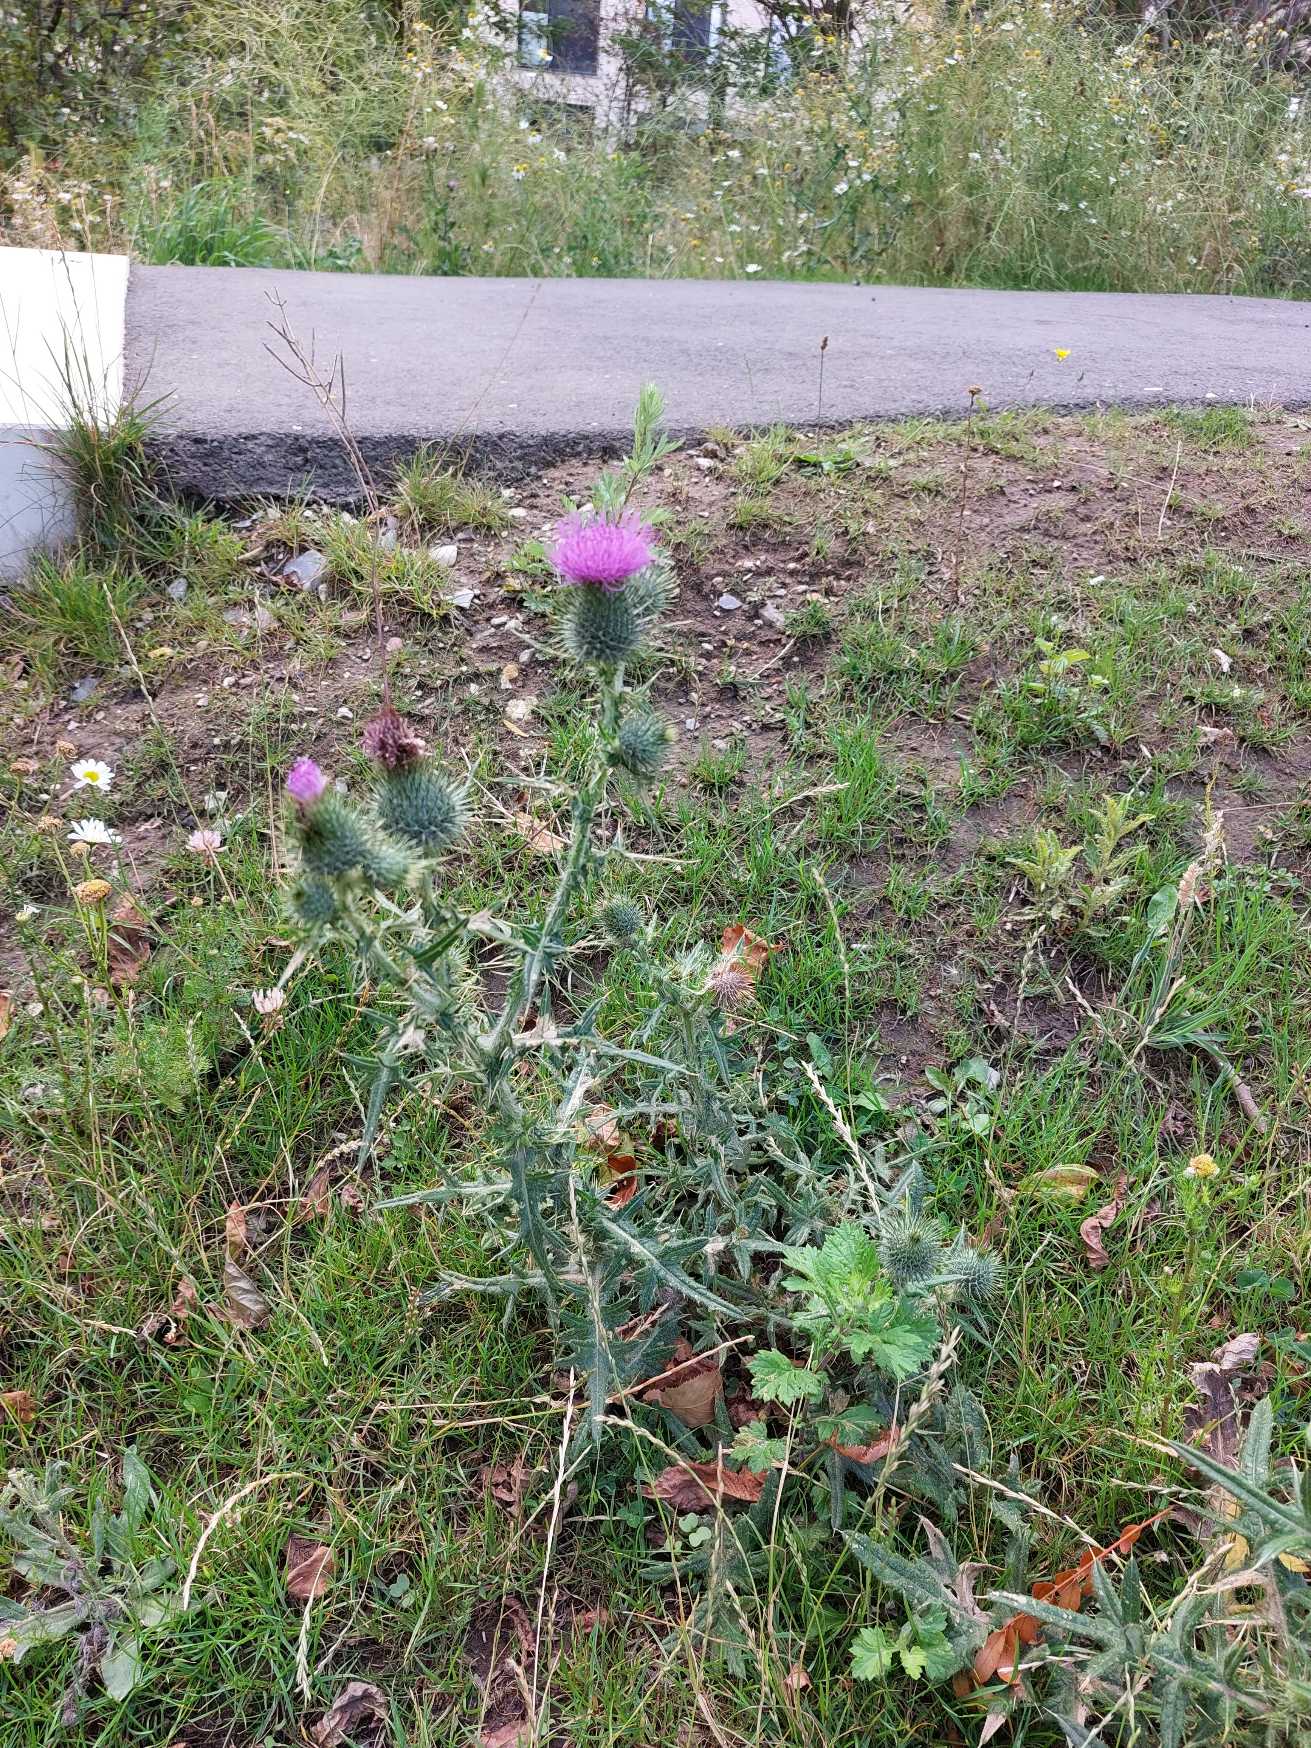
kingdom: Plantae
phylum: Tracheophyta
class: Magnoliopsida
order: Asterales
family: Asteraceae
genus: Cirsium
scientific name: Cirsium vulgare
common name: Horse-tidsel
